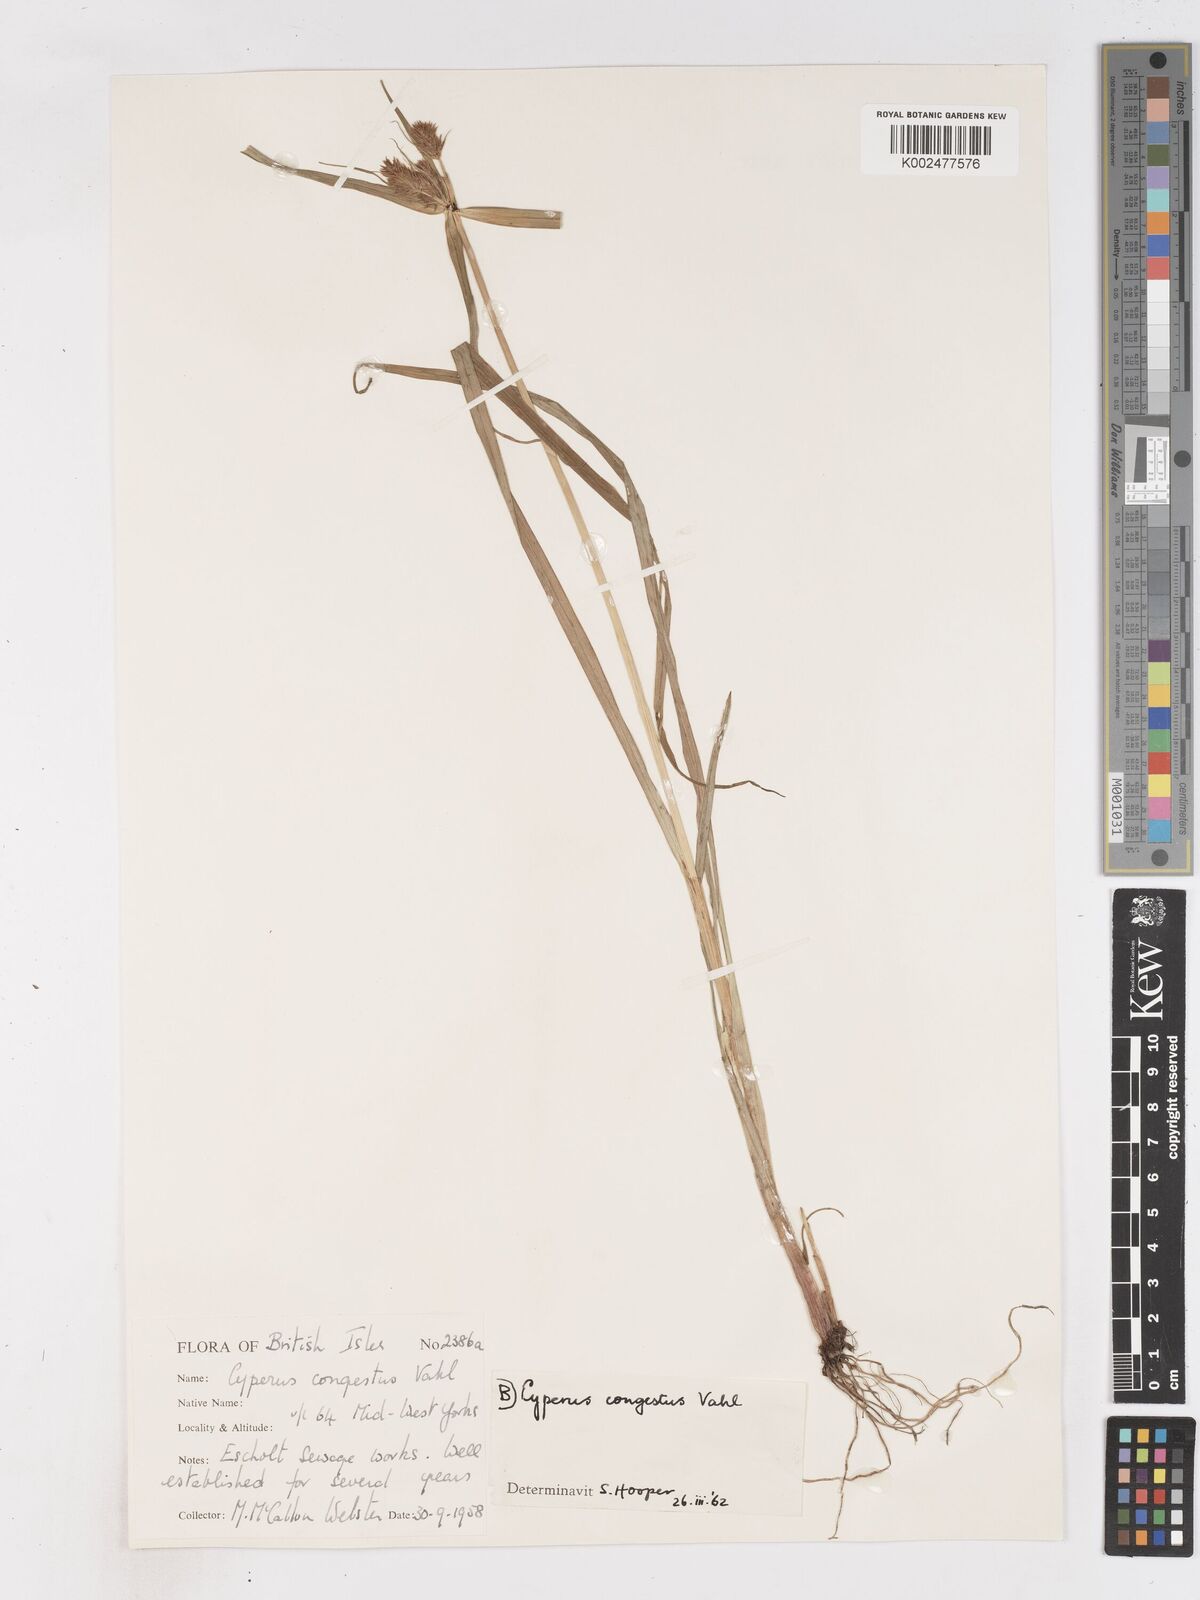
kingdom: Plantae
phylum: Tracheophyta
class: Liliopsida
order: Poales
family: Cyperaceae
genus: Cyperus
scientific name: Cyperus congestus
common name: Dense flat sedge
